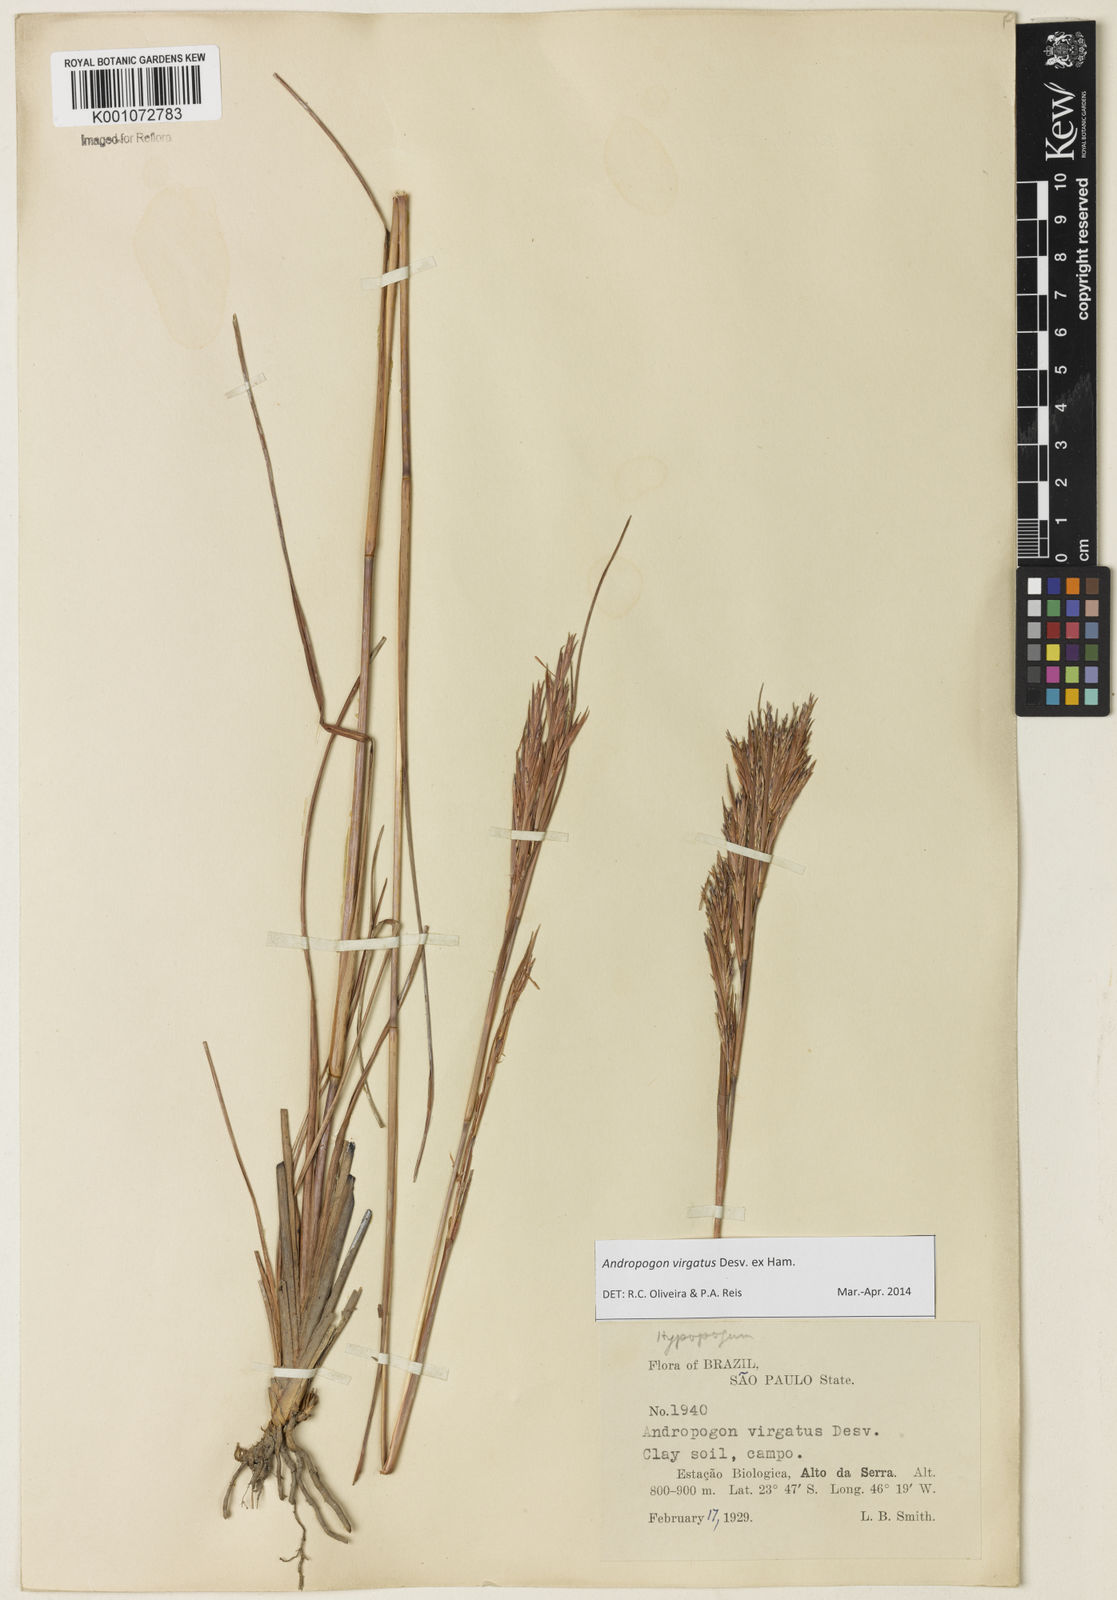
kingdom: Plantae
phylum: Tracheophyta
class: Liliopsida
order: Poales
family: Poaceae
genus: Andropogon
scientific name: Andropogon virgatus
